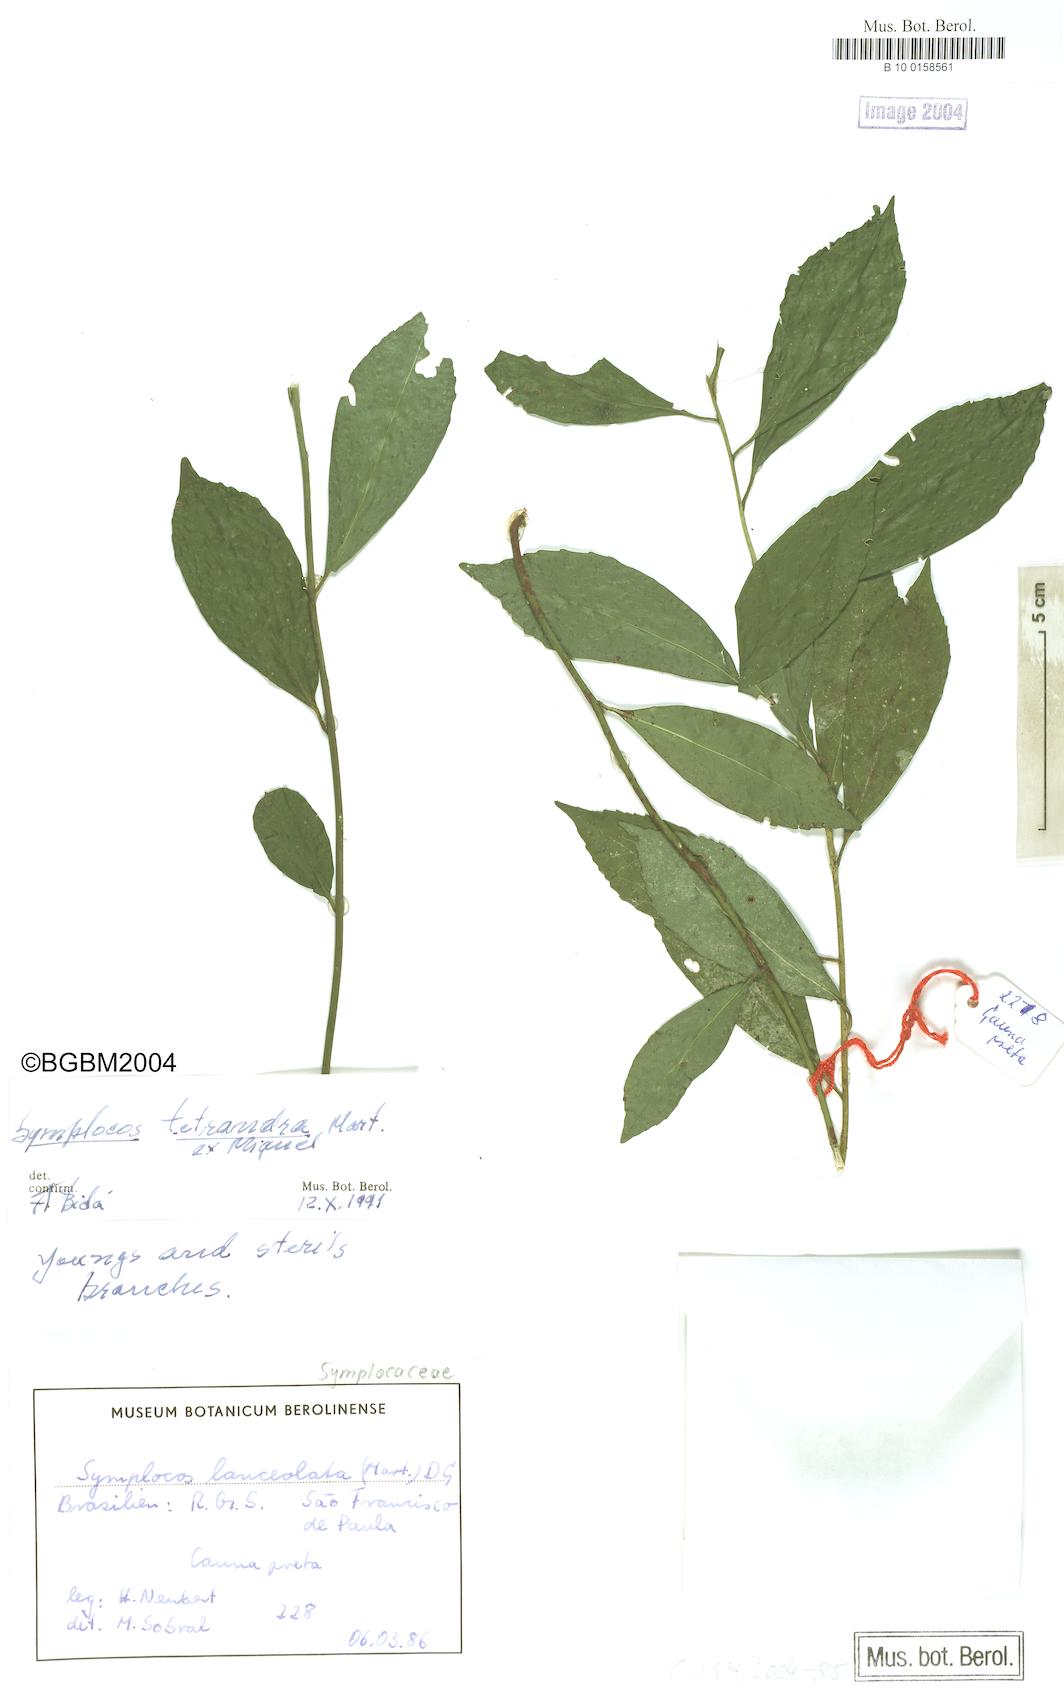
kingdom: Plantae
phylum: Tracheophyta
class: Magnoliopsida
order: Ericales
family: Symplocaceae
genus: Symplocos
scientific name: Symplocos tetrandra
